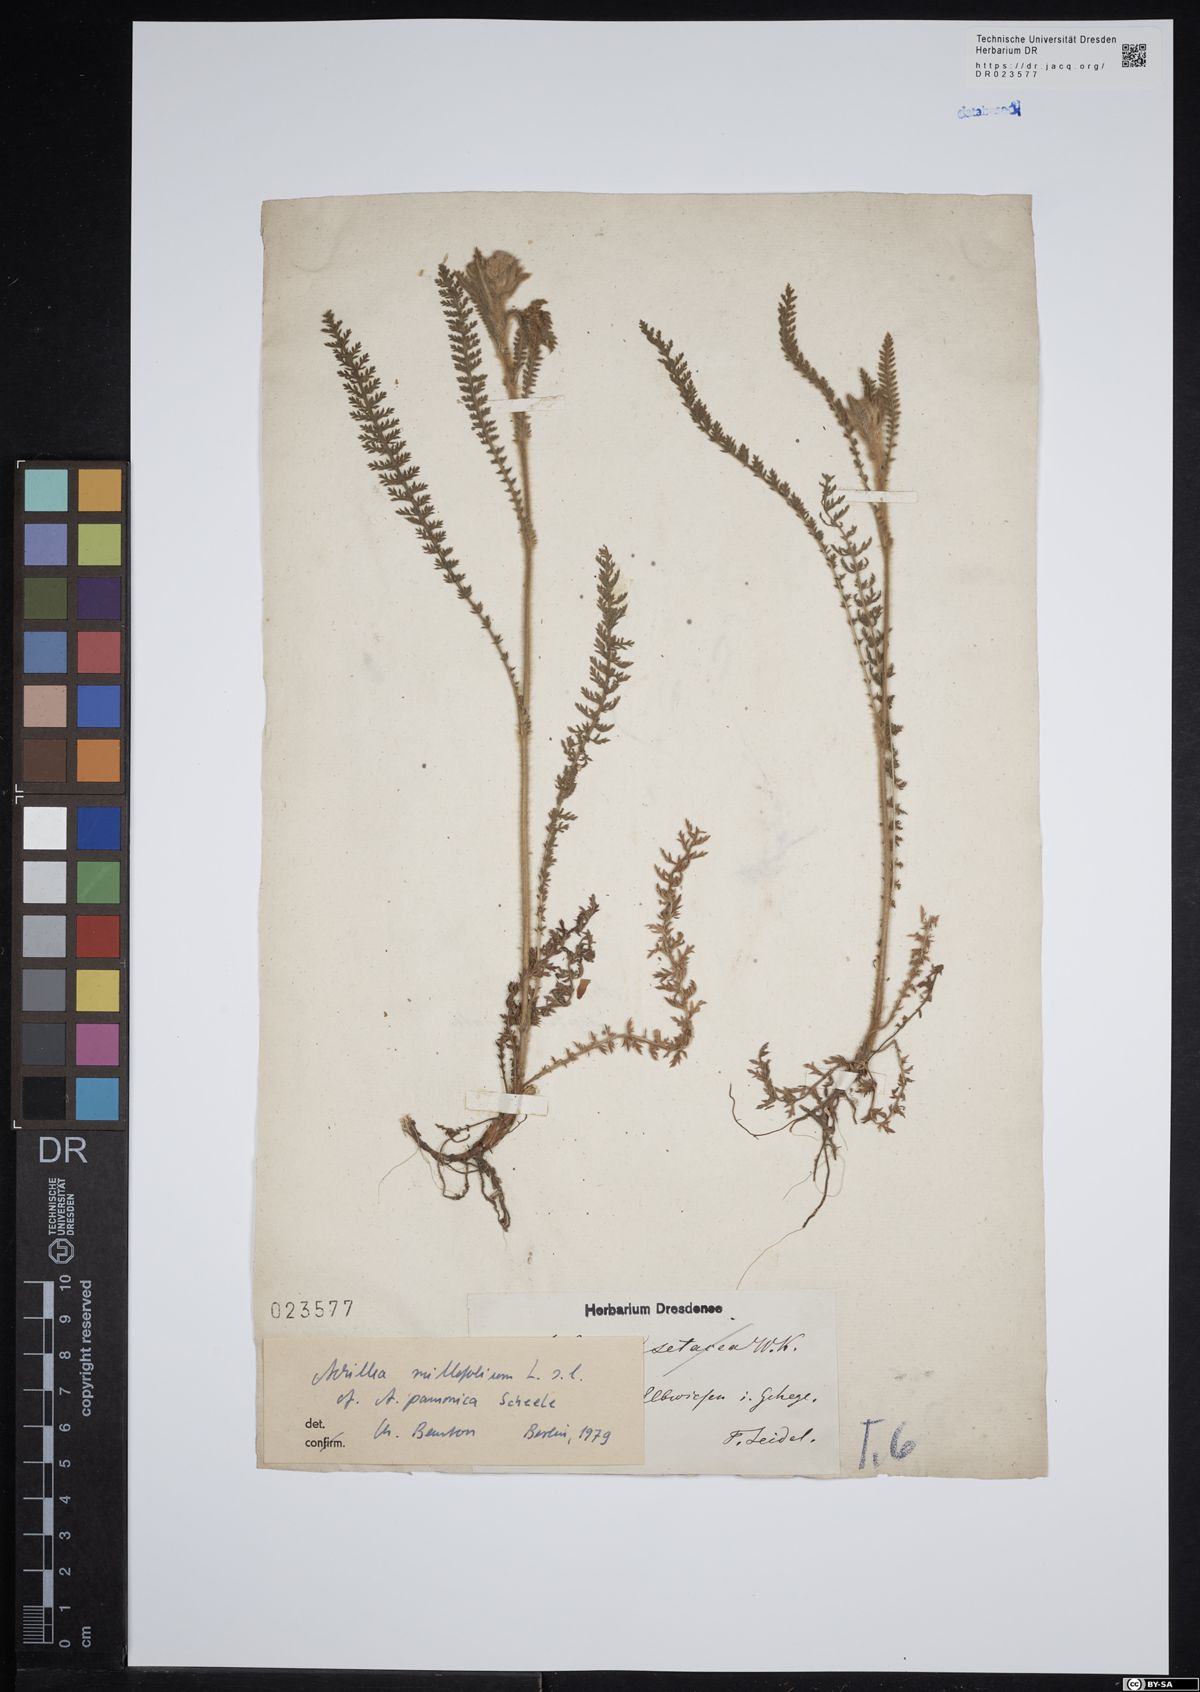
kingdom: Plantae
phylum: Tracheophyta
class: Magnoliopsida
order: Asterales
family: Asteraceae
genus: Achillea
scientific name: Achillea pannonica
